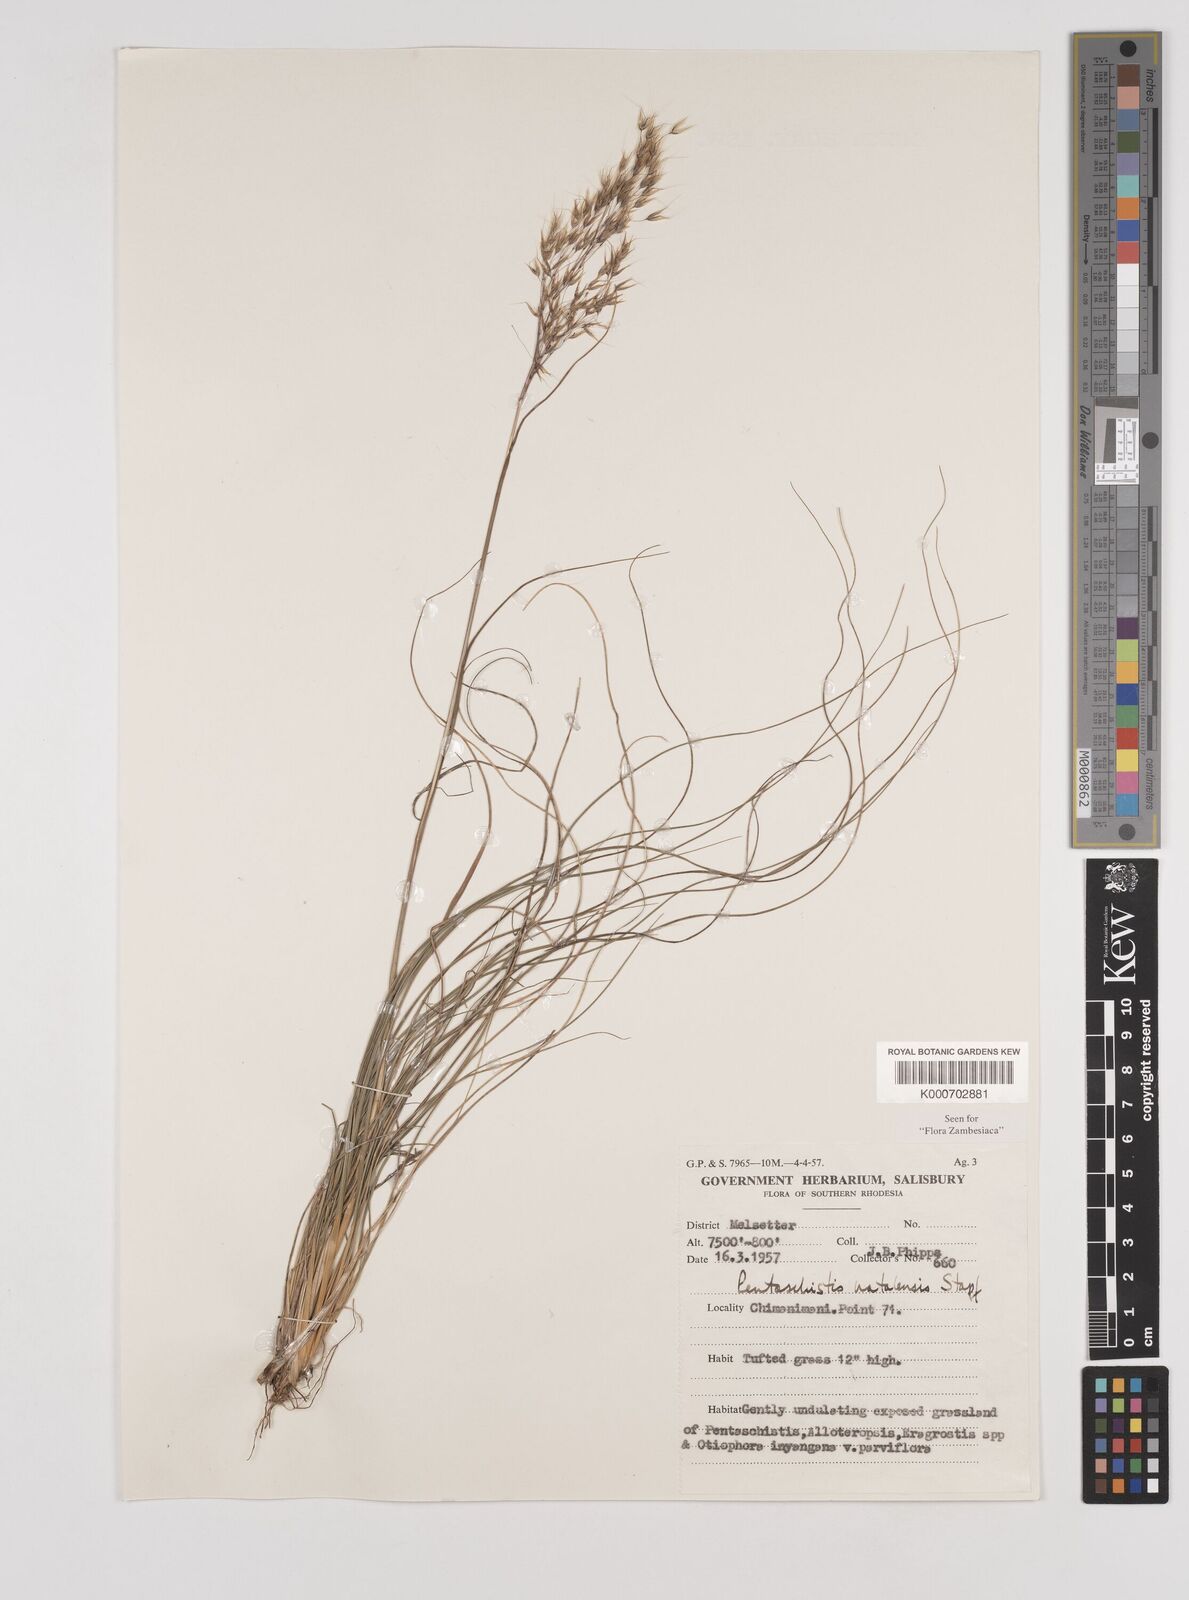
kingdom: Plantae
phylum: Tracheophyta
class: Liliopsida
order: Poales
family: Poaceae
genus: Pentameris
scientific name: Pentameris natalensis
